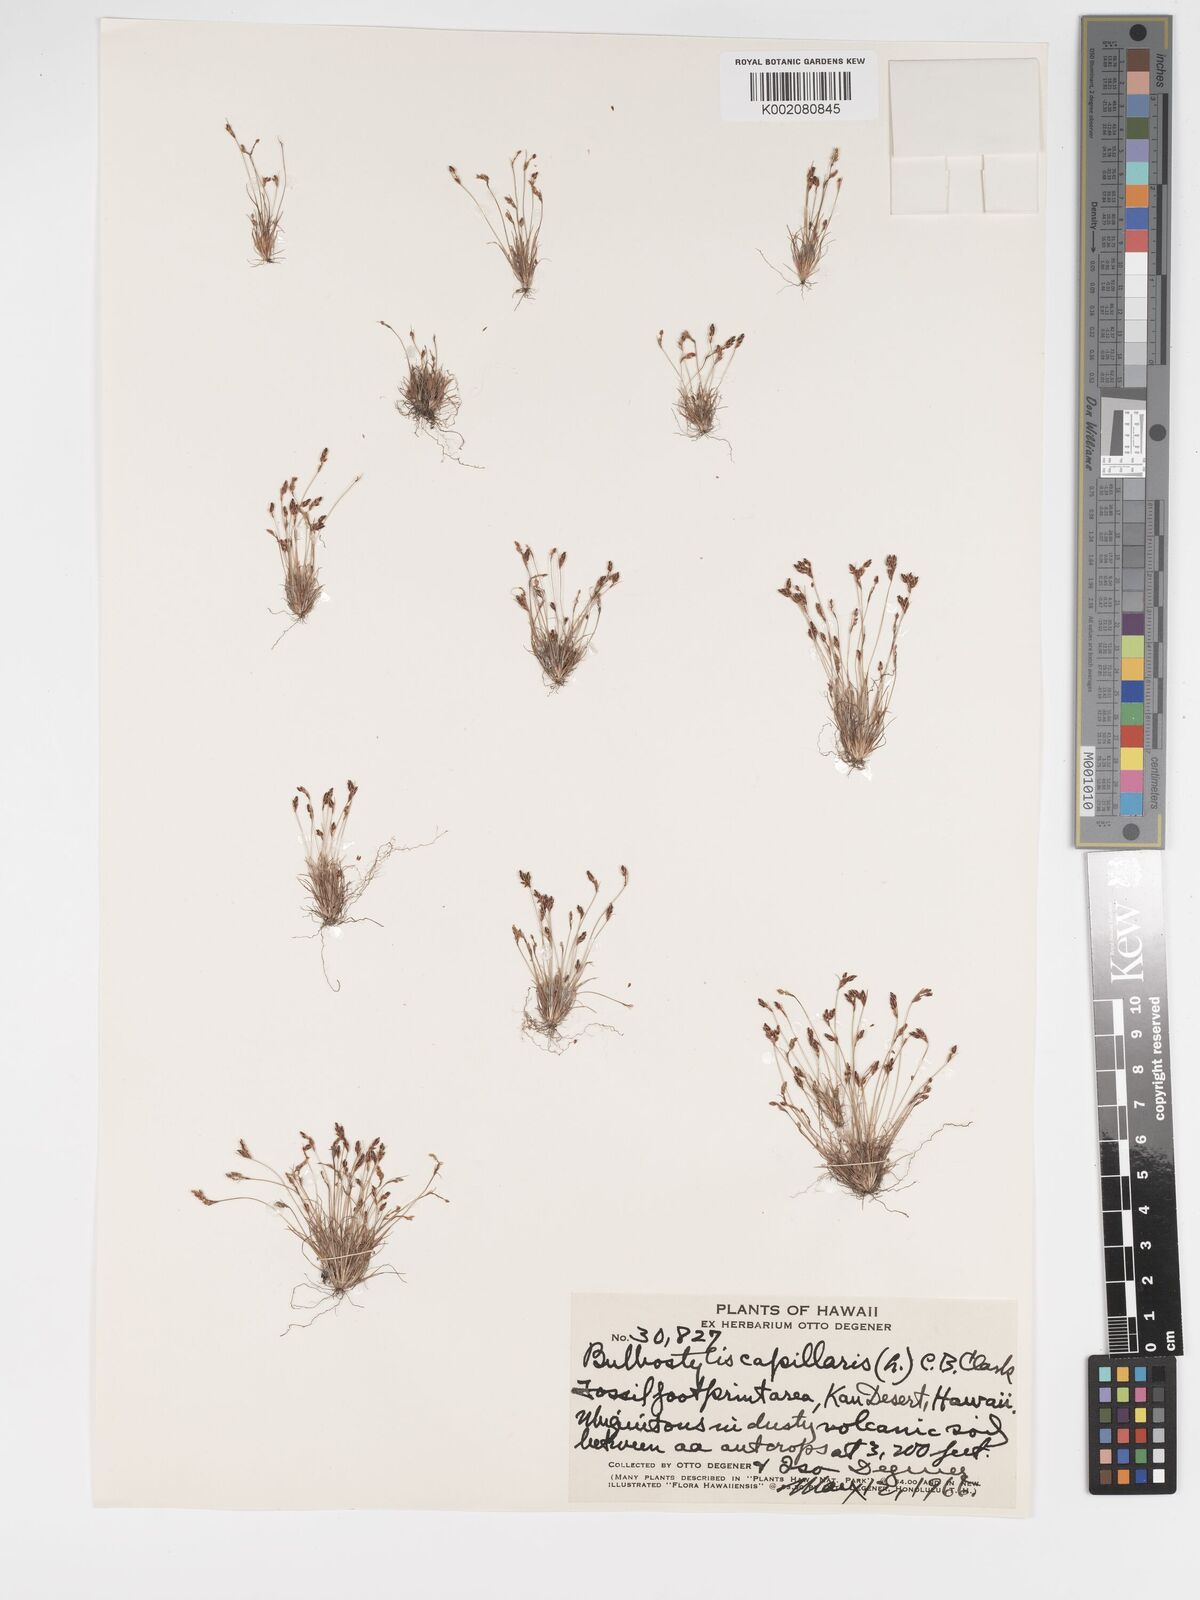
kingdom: Plantae
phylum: Tracheophyta
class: Liliopsida
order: Poales
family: Cyperaceae
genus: Bulbostylis
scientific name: Bulbostylis capillaris
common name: Densetuft hairsedge
